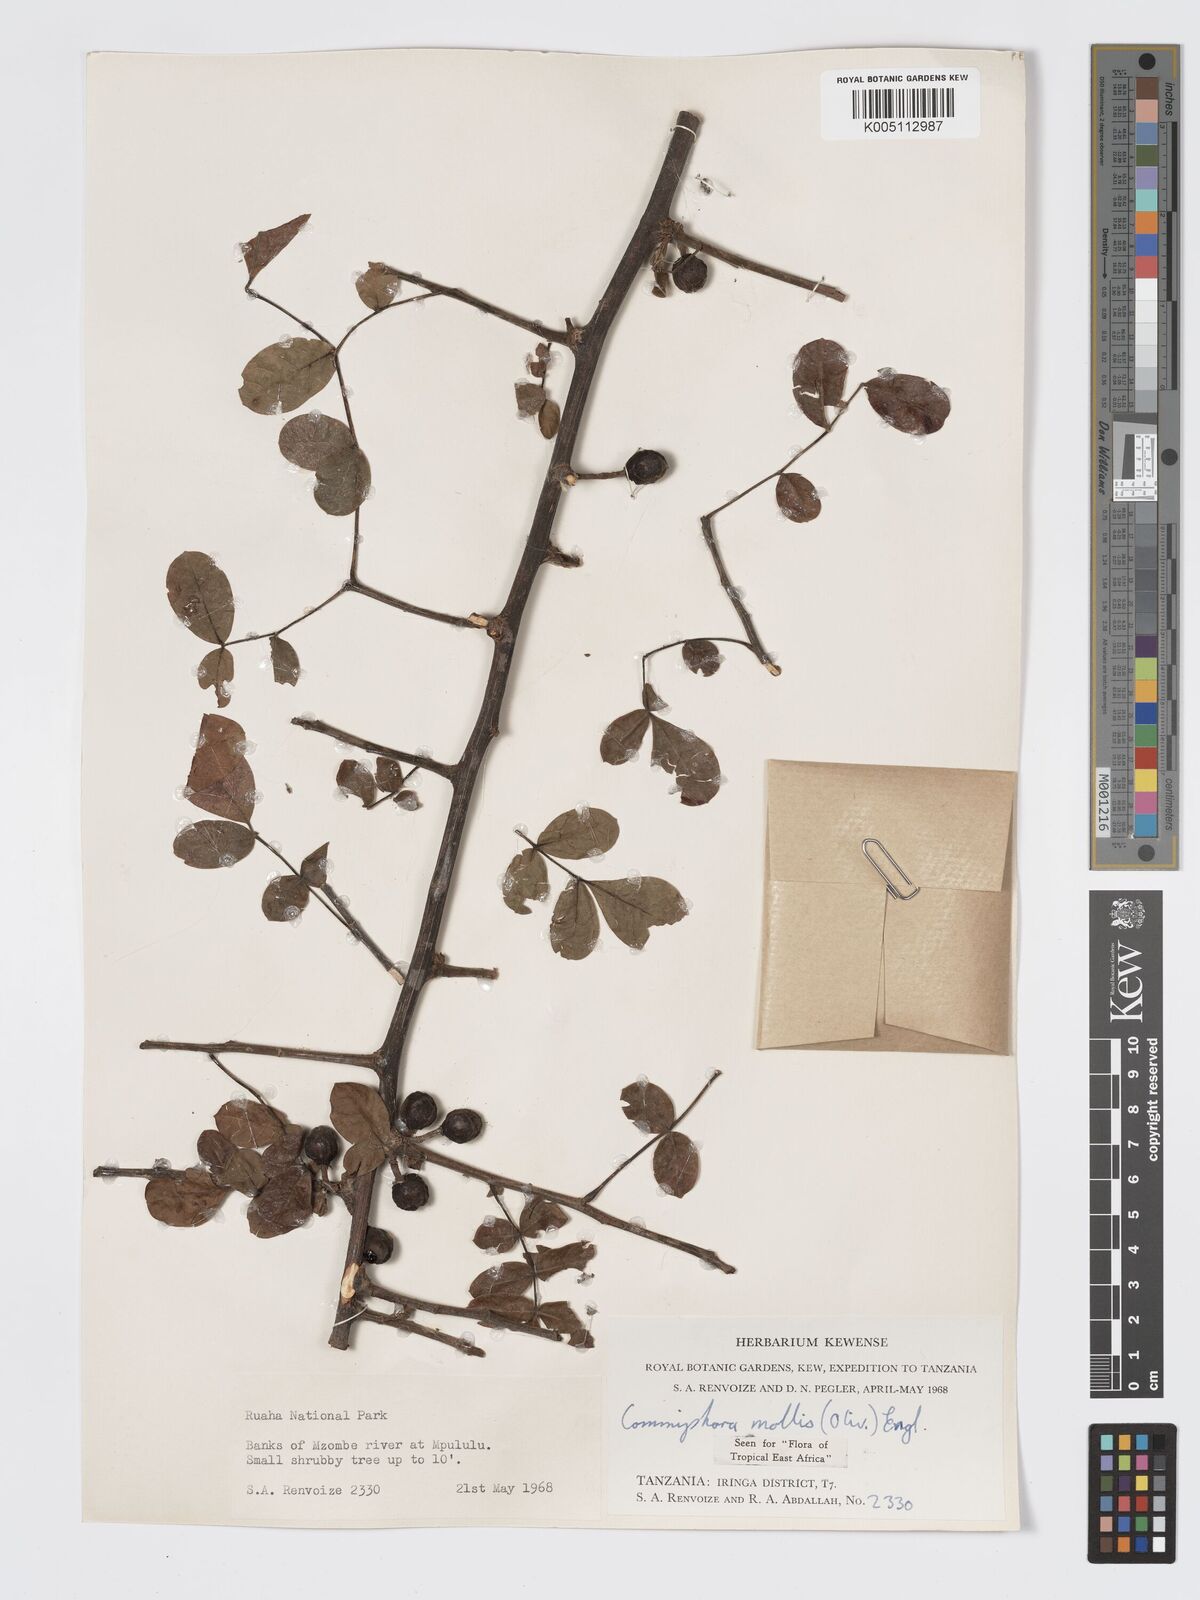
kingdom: Plantae
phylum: Tracheophyta
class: Magnoliopsida
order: Sapindales
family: Burseraceae
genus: Commiphora
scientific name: Commiphora mollis
